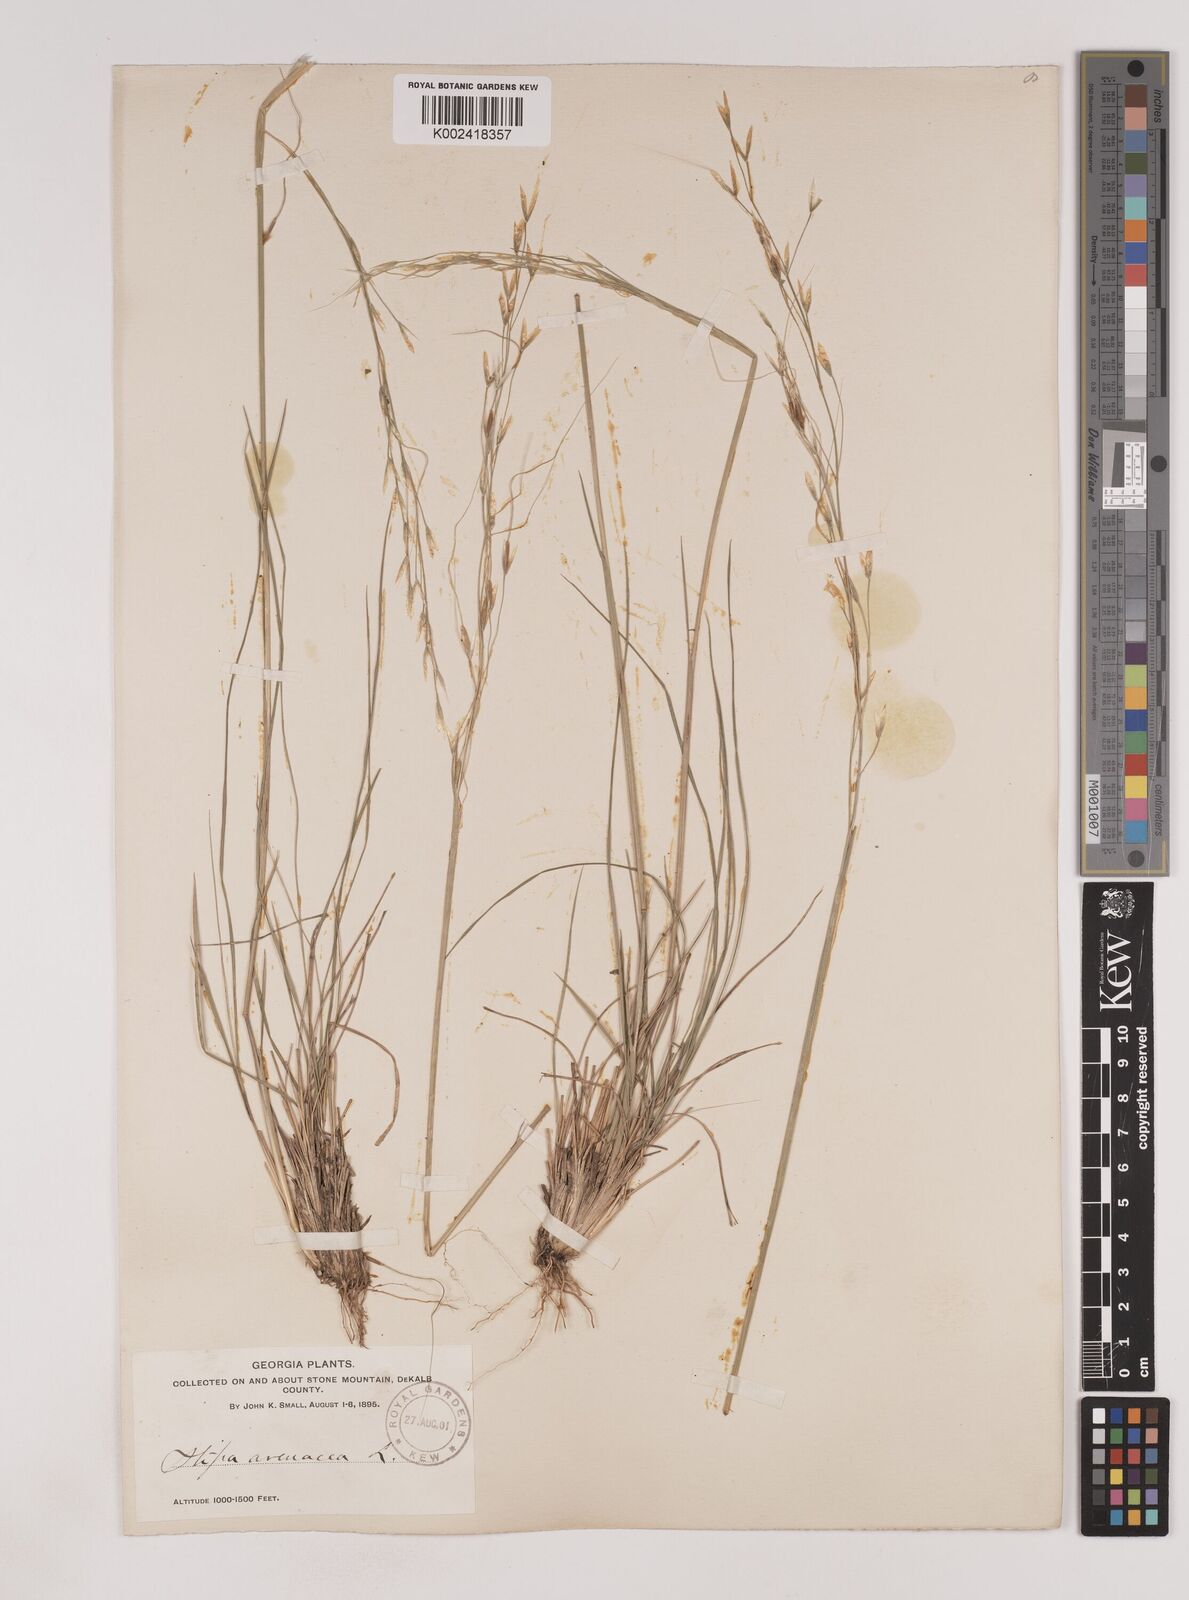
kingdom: Plantae
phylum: Tracheophyta
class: Liliopsida
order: Poales
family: Poaceae
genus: Piptochaetium
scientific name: Piptochaetium avenaceum
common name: Black bunchgrass
